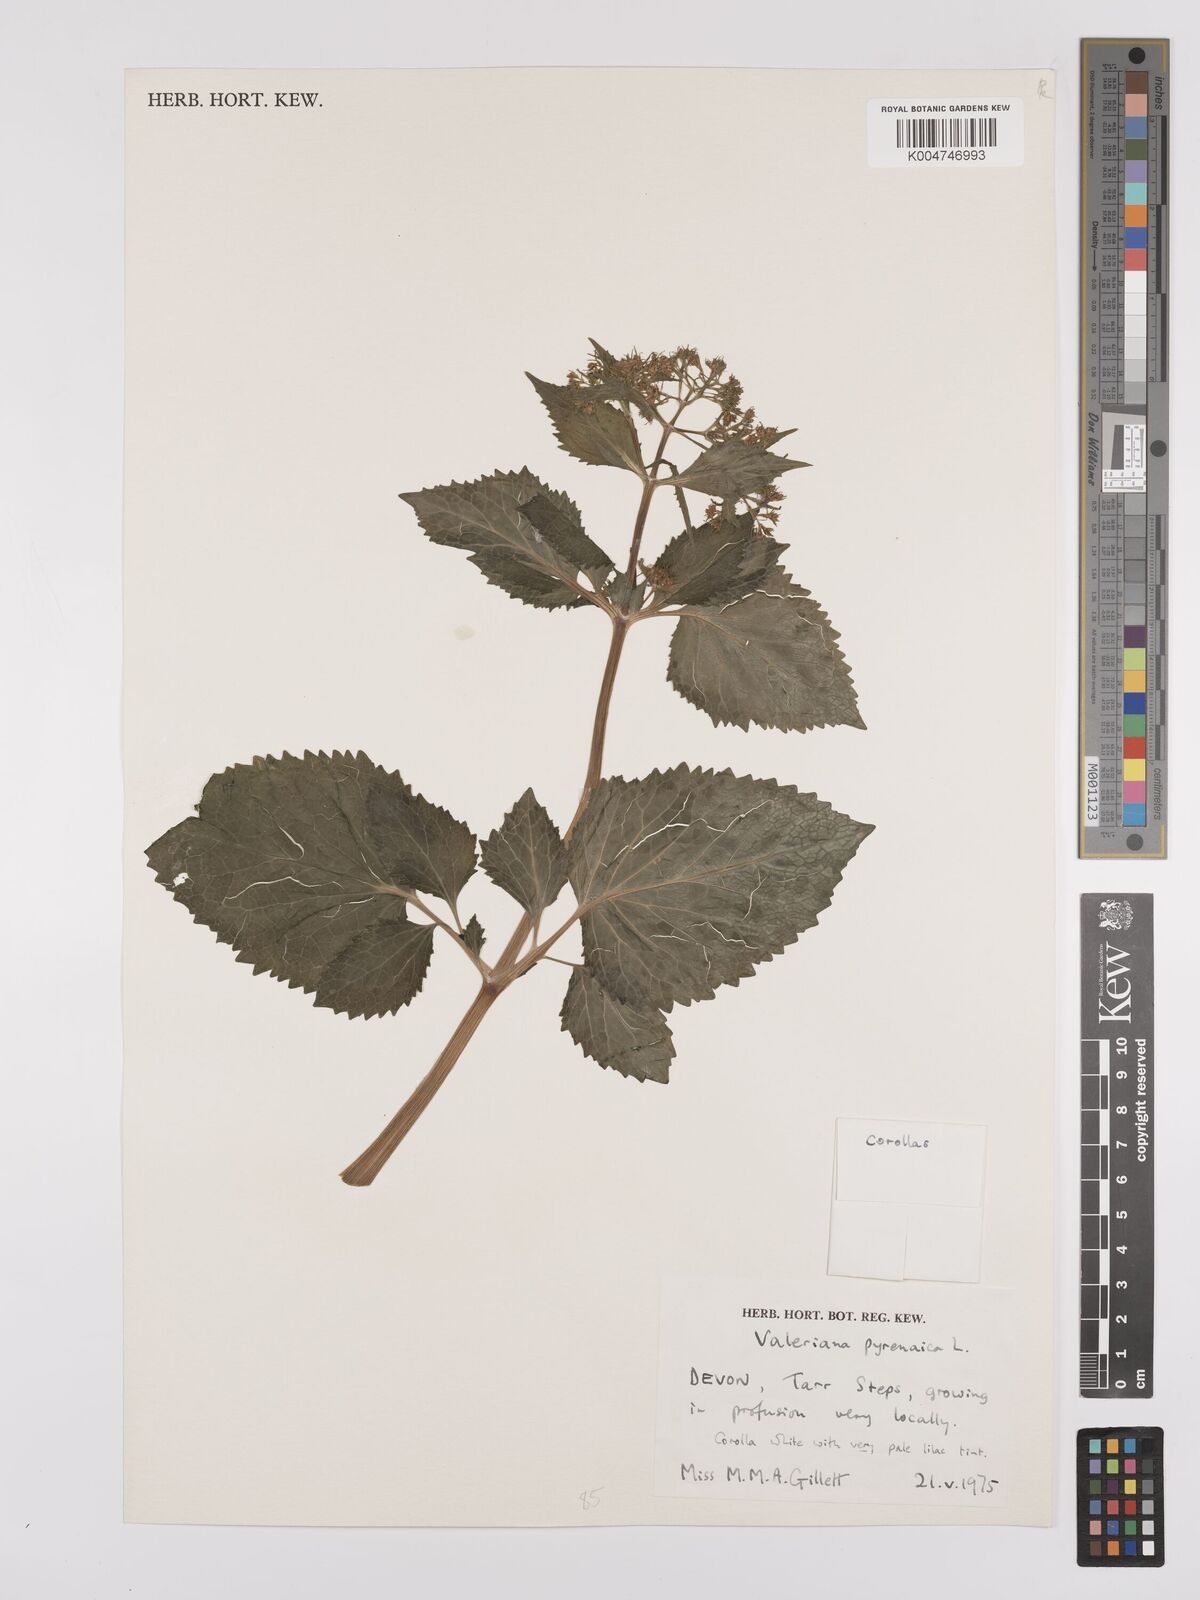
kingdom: Plantae
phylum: Tracheophyta
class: Magnoliopsida
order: Dipsacales
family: Caprifoliaceae
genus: Valeriana
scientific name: Valeriana pyrenaica
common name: Pyrenean valerian
